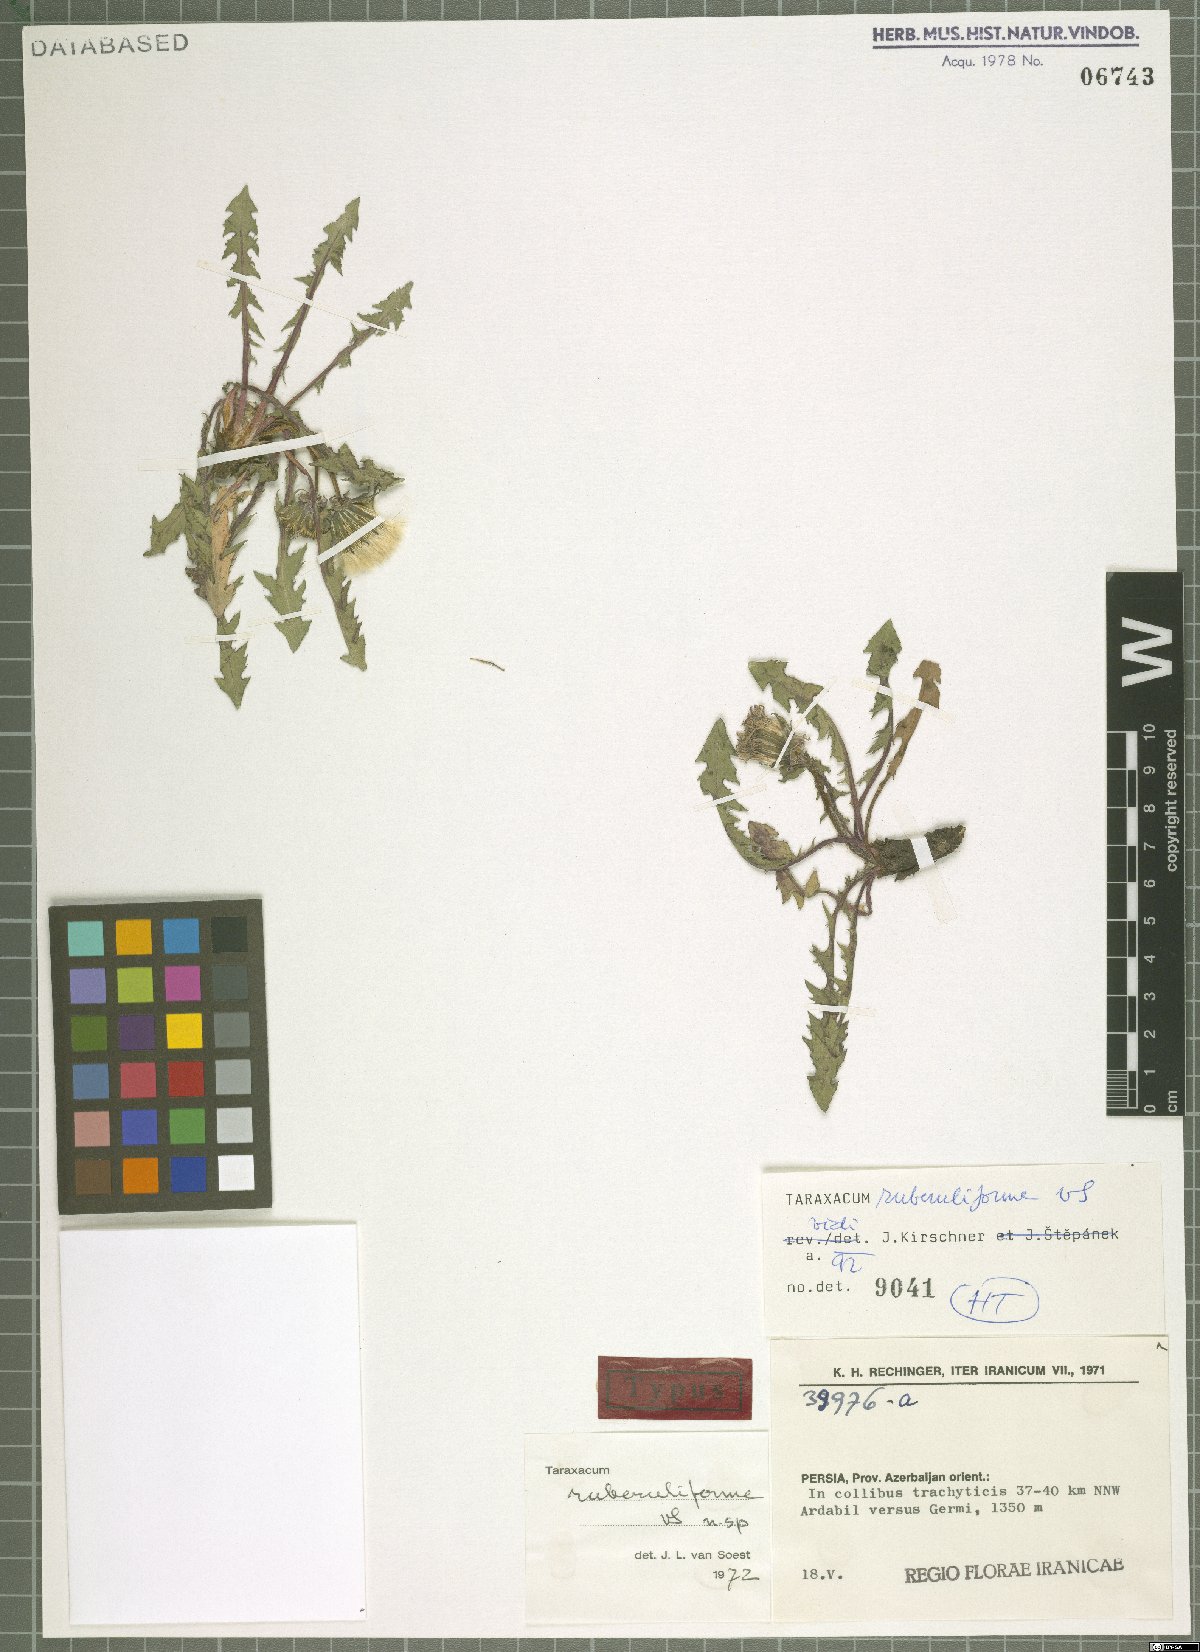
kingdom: Plantae
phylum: Tracheophyta
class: Magnoliopsida
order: Asterales
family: Asteraceae
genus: Taraxacum
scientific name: Taraxacum ruberuliforme
